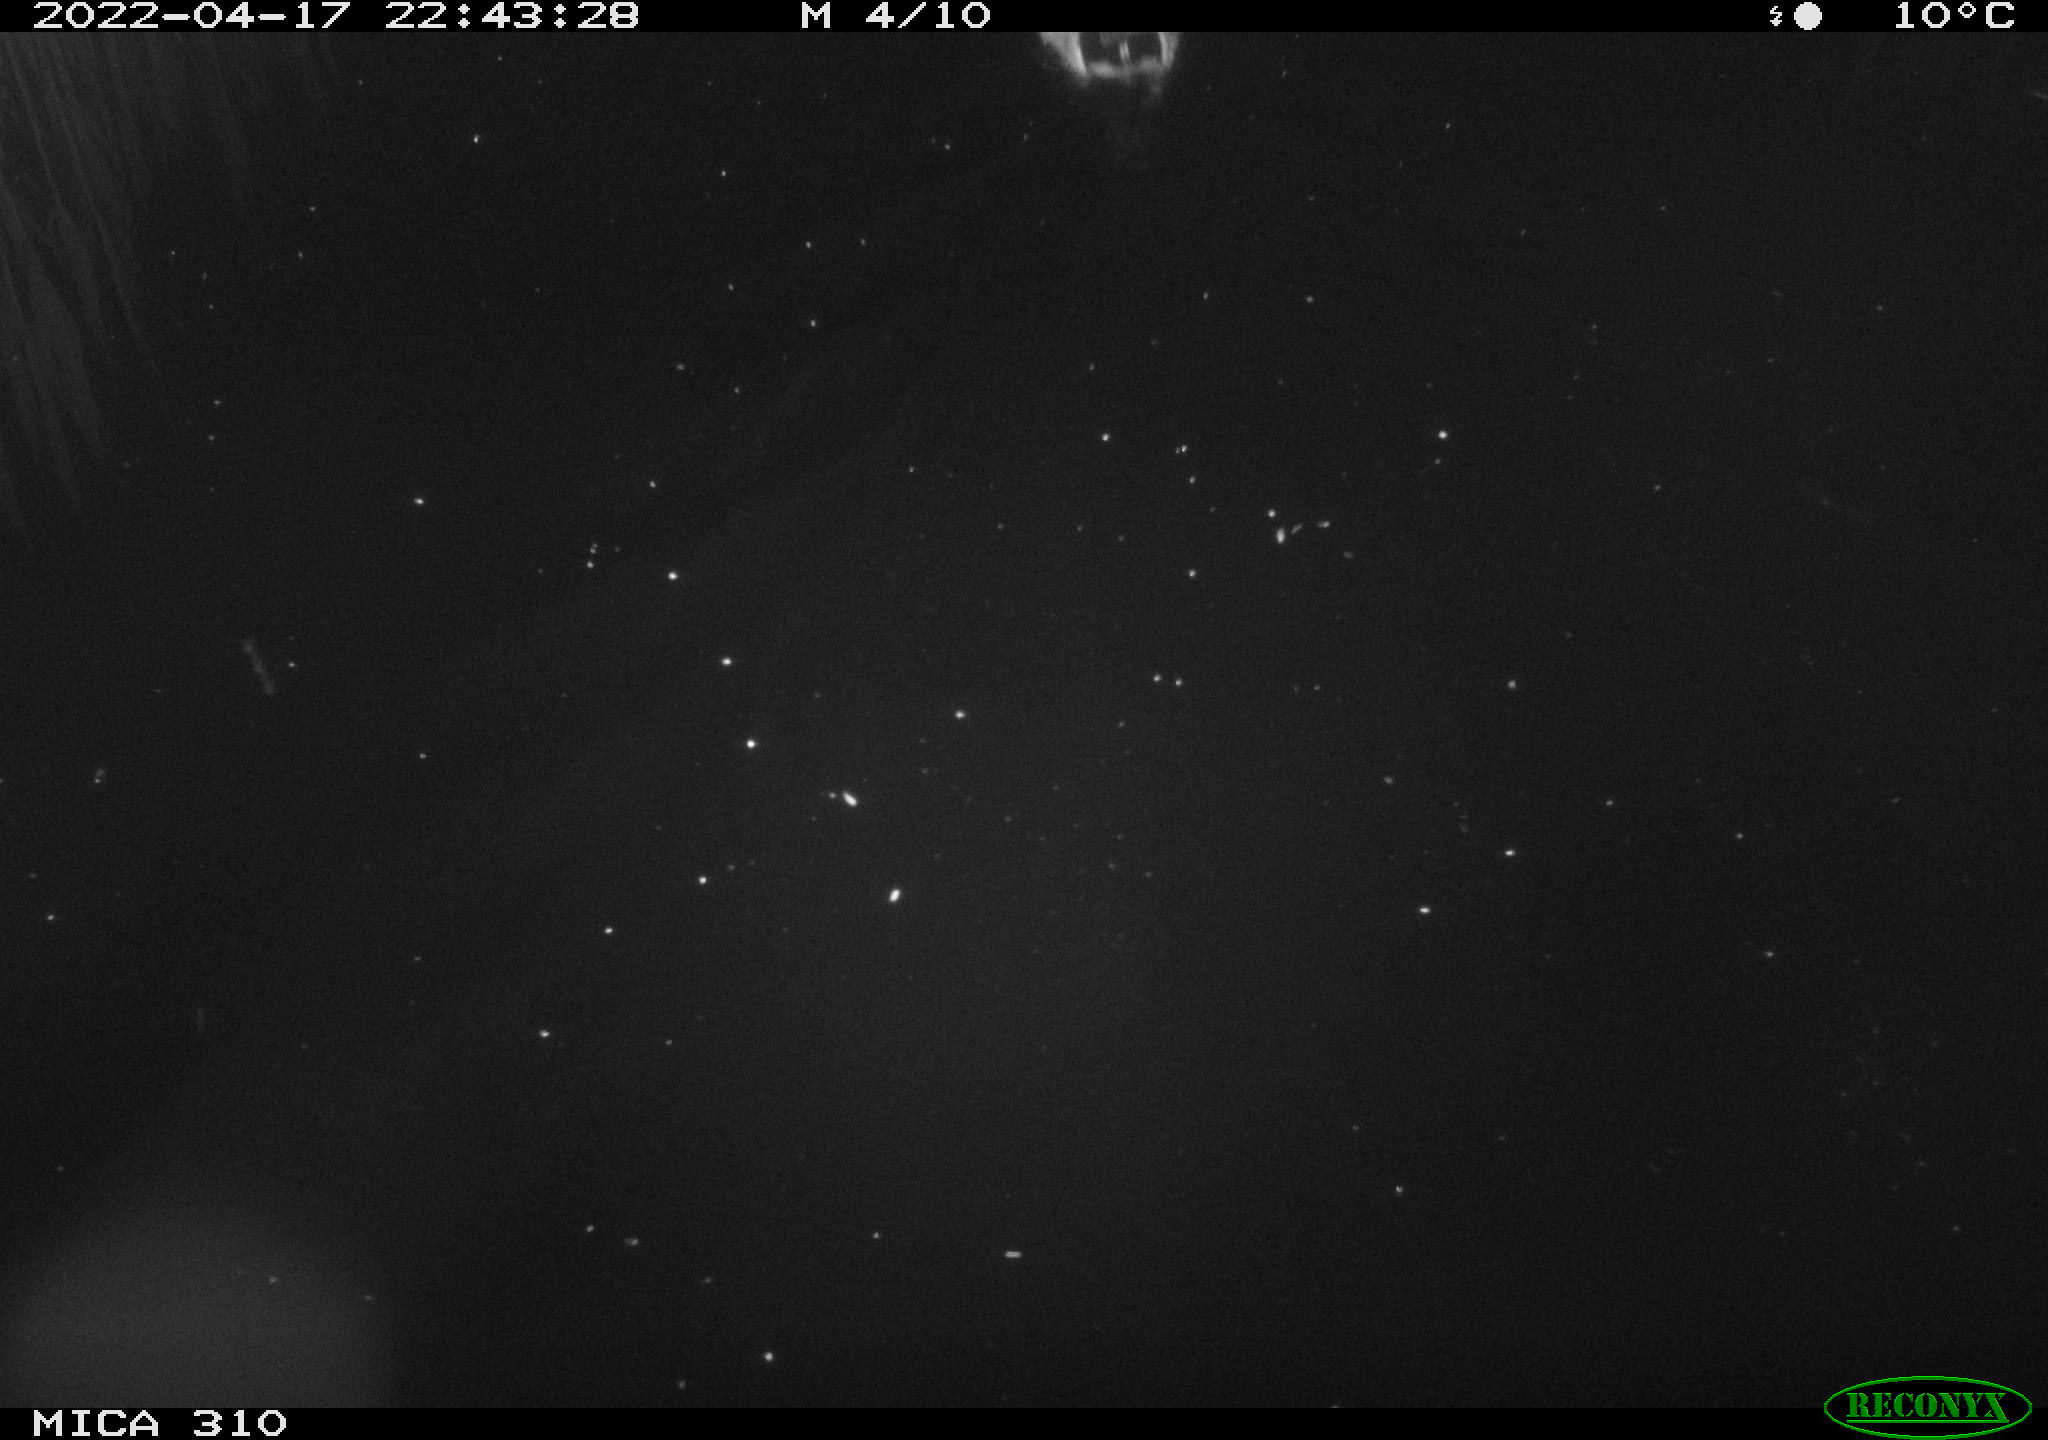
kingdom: Animalia
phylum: Chordata
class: Aves
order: Anseriformes
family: Anatidae
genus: Anas
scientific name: Anas platyrhynchos
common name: Mallard
